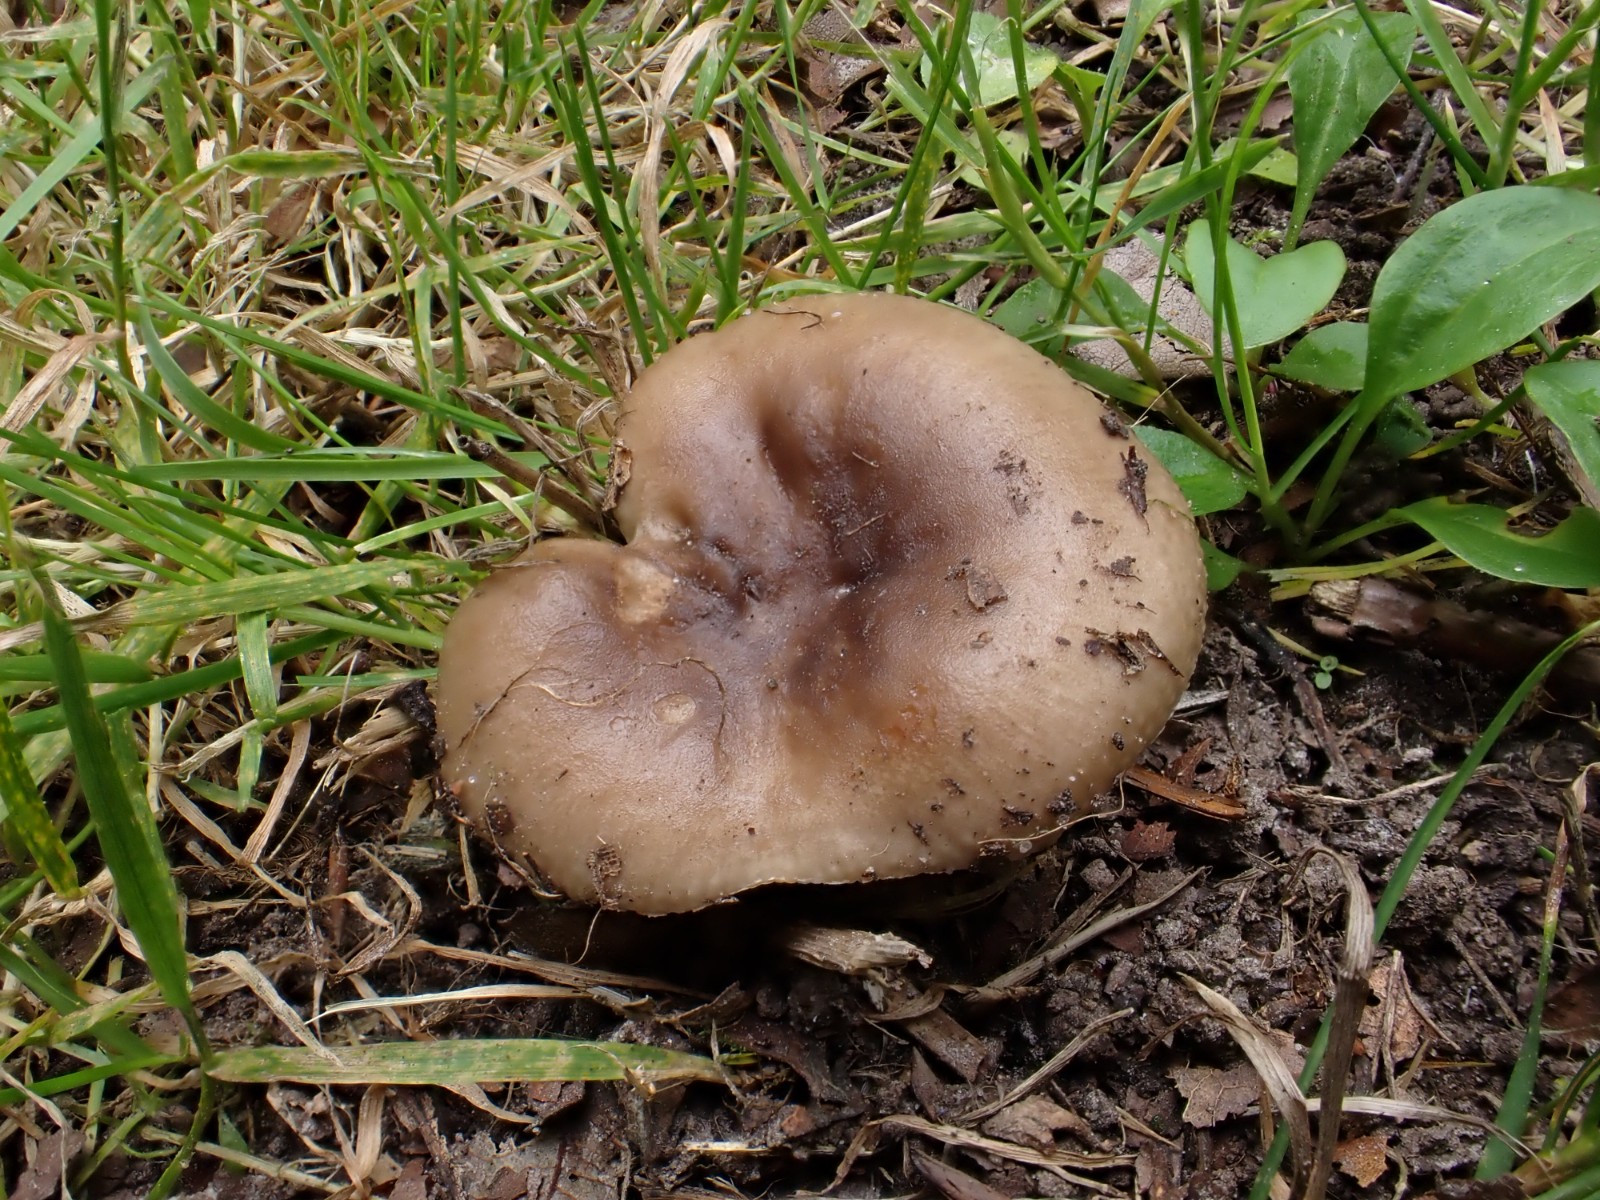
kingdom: Fungi
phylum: Basidiomycota
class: Agaricomycetes
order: Russulales
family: Russulaceae
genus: Russula
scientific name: Russula amoenolens
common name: skarp kam-skørhat
